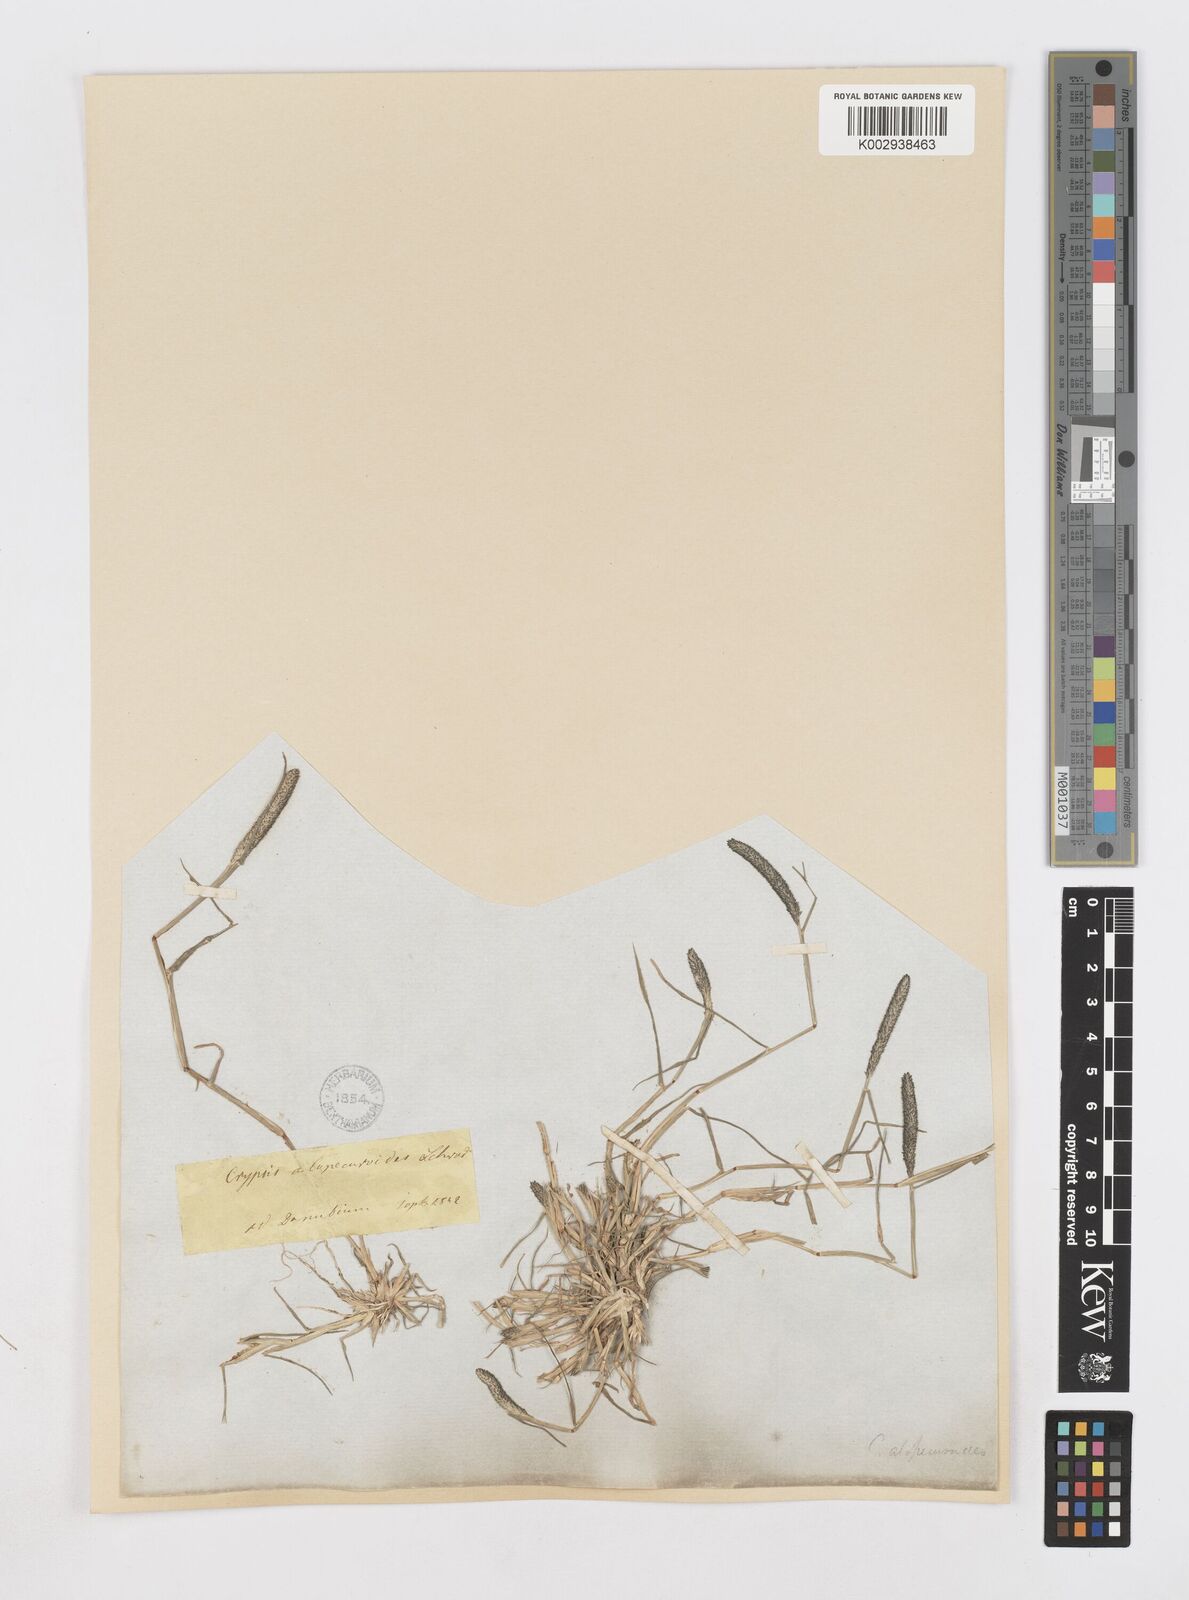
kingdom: Plantae
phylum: Tracheophyta
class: Liliopsida
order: Poales
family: Poaceae
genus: Sporobolus
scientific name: Sporobolus alopecuroides
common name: Foxtail pricklegrass
